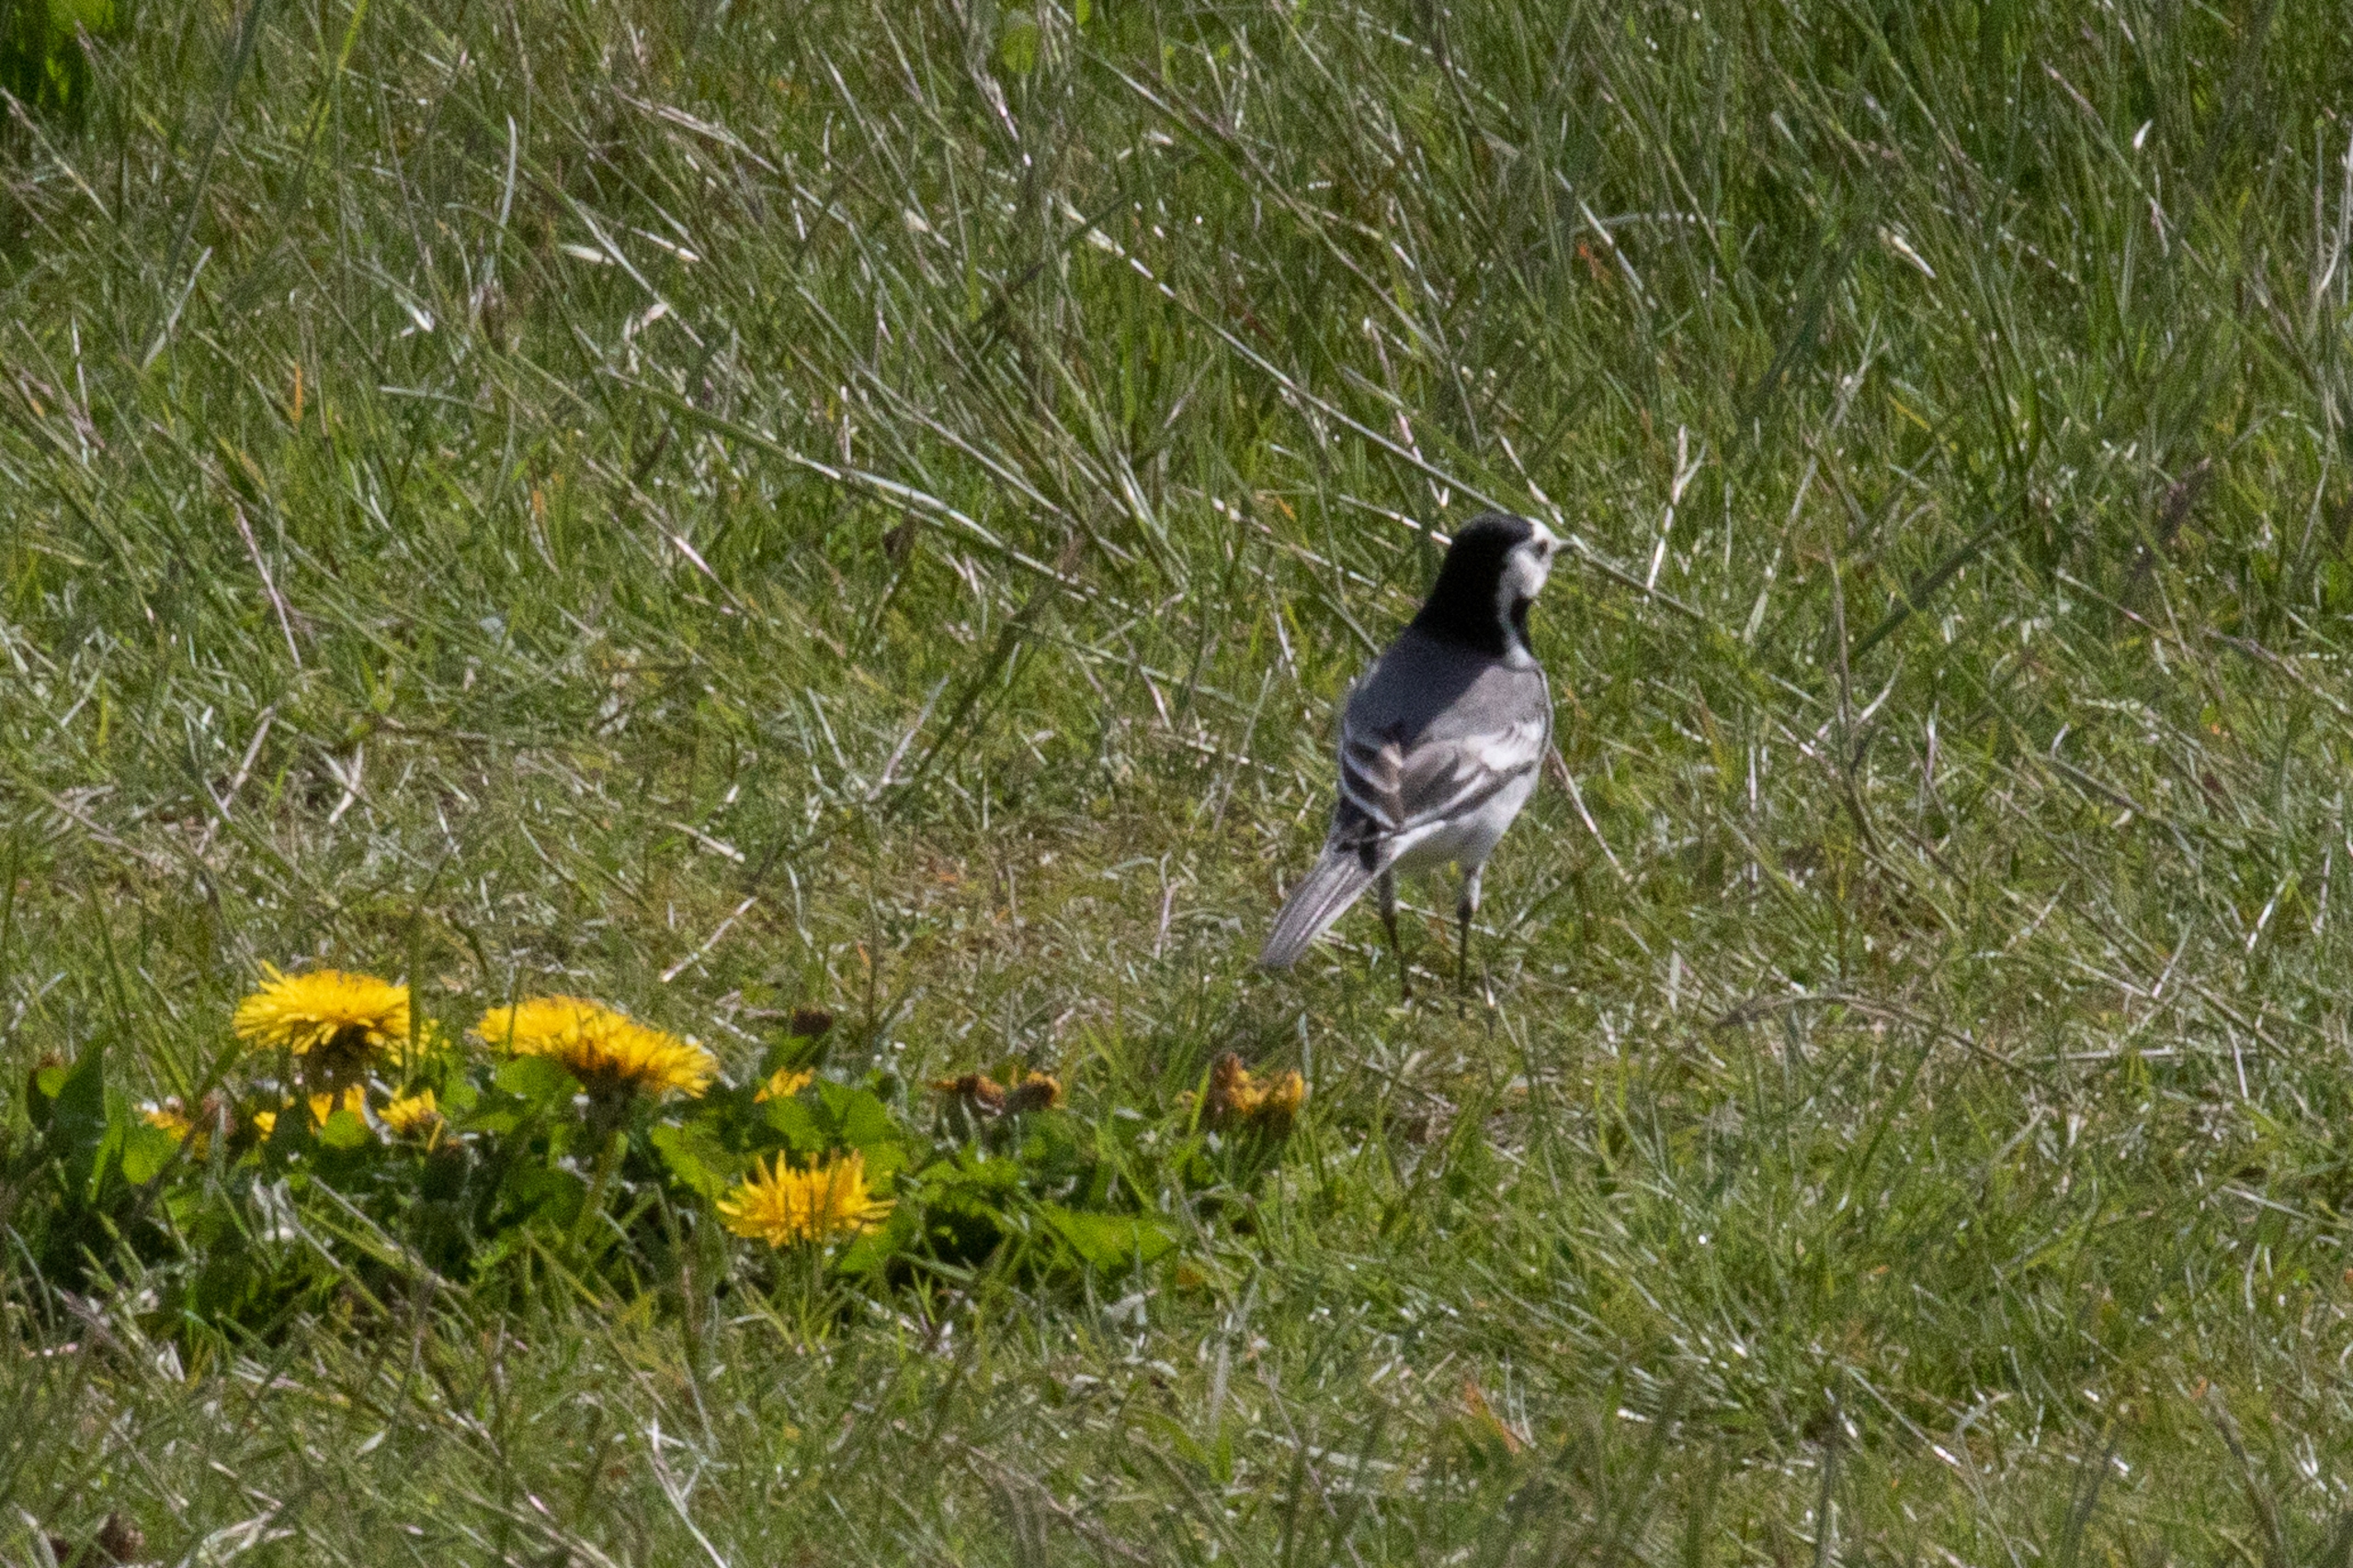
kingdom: Animalia
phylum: Chordata
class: Aves
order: Passeriformes
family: Motacillidae
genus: Motacilla
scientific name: Motacilla alba
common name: Hvid vipstjert
